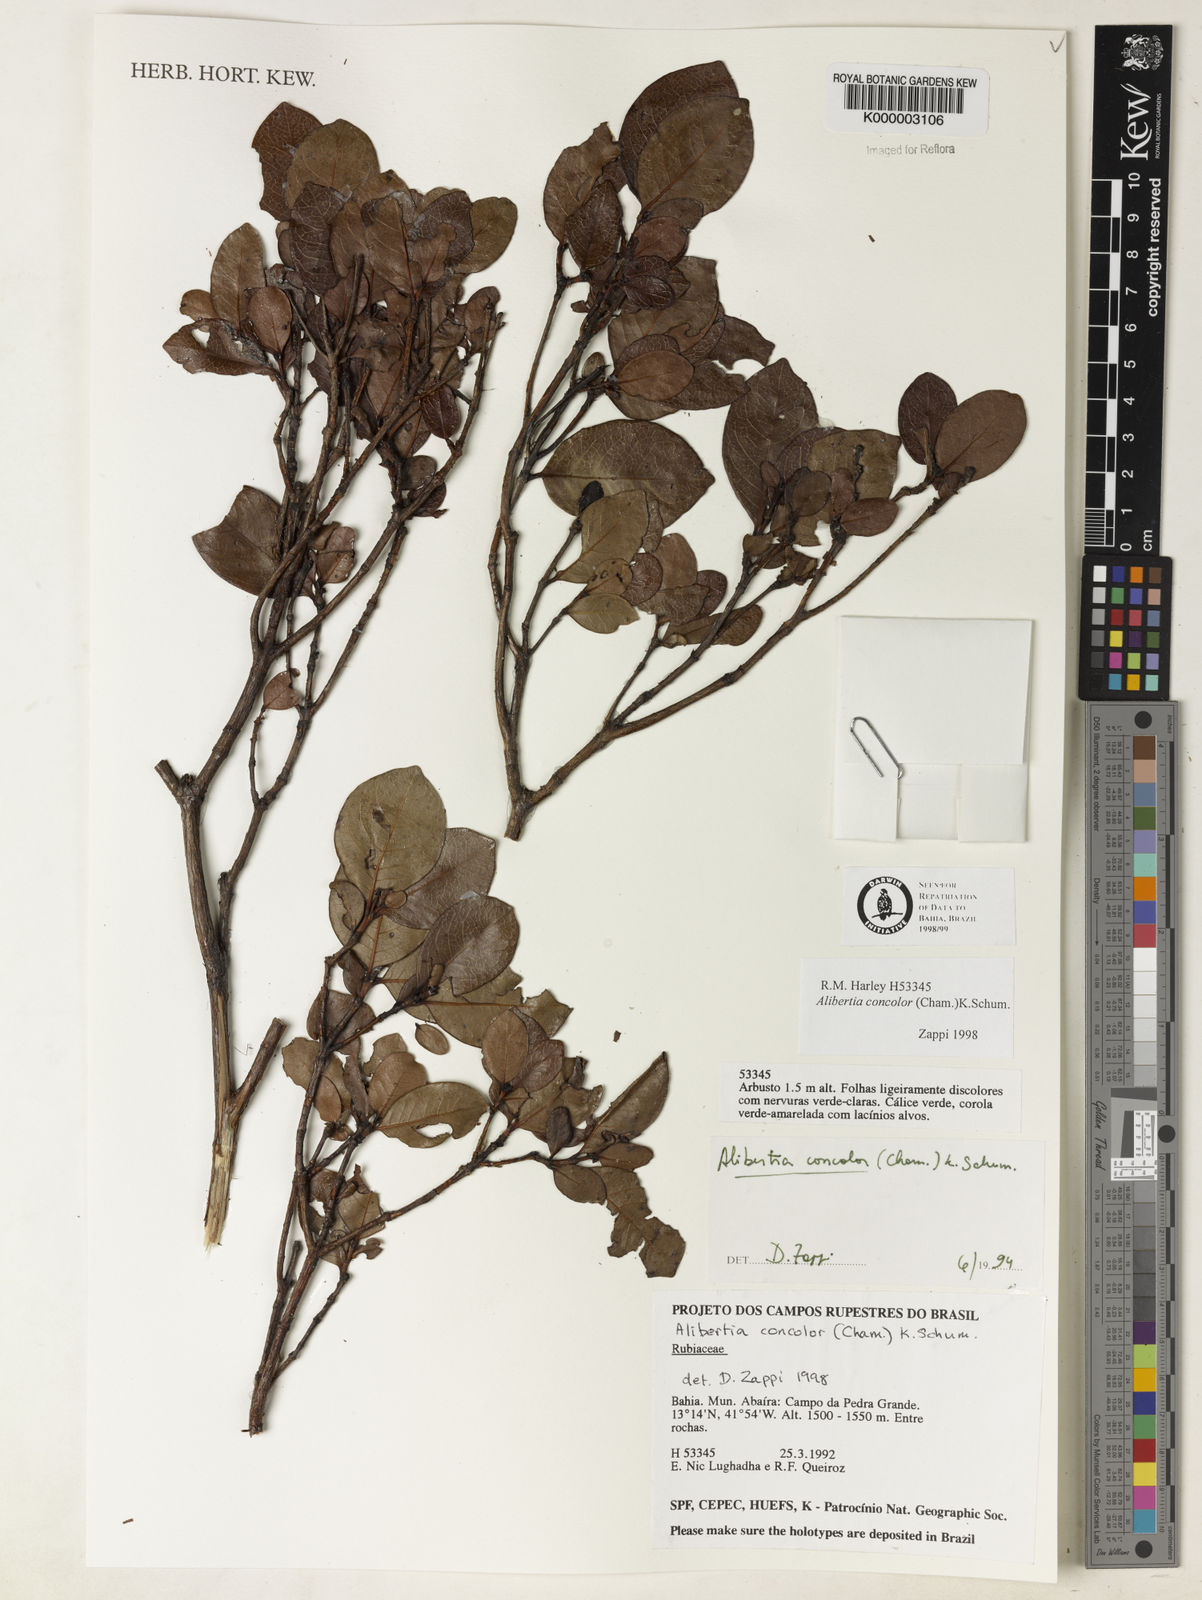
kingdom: Plantae
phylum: Tracheophyta
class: Magnoliopsida
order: Gentianales
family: Rubiaceae
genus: Cordiera
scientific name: Cordiera concolor
